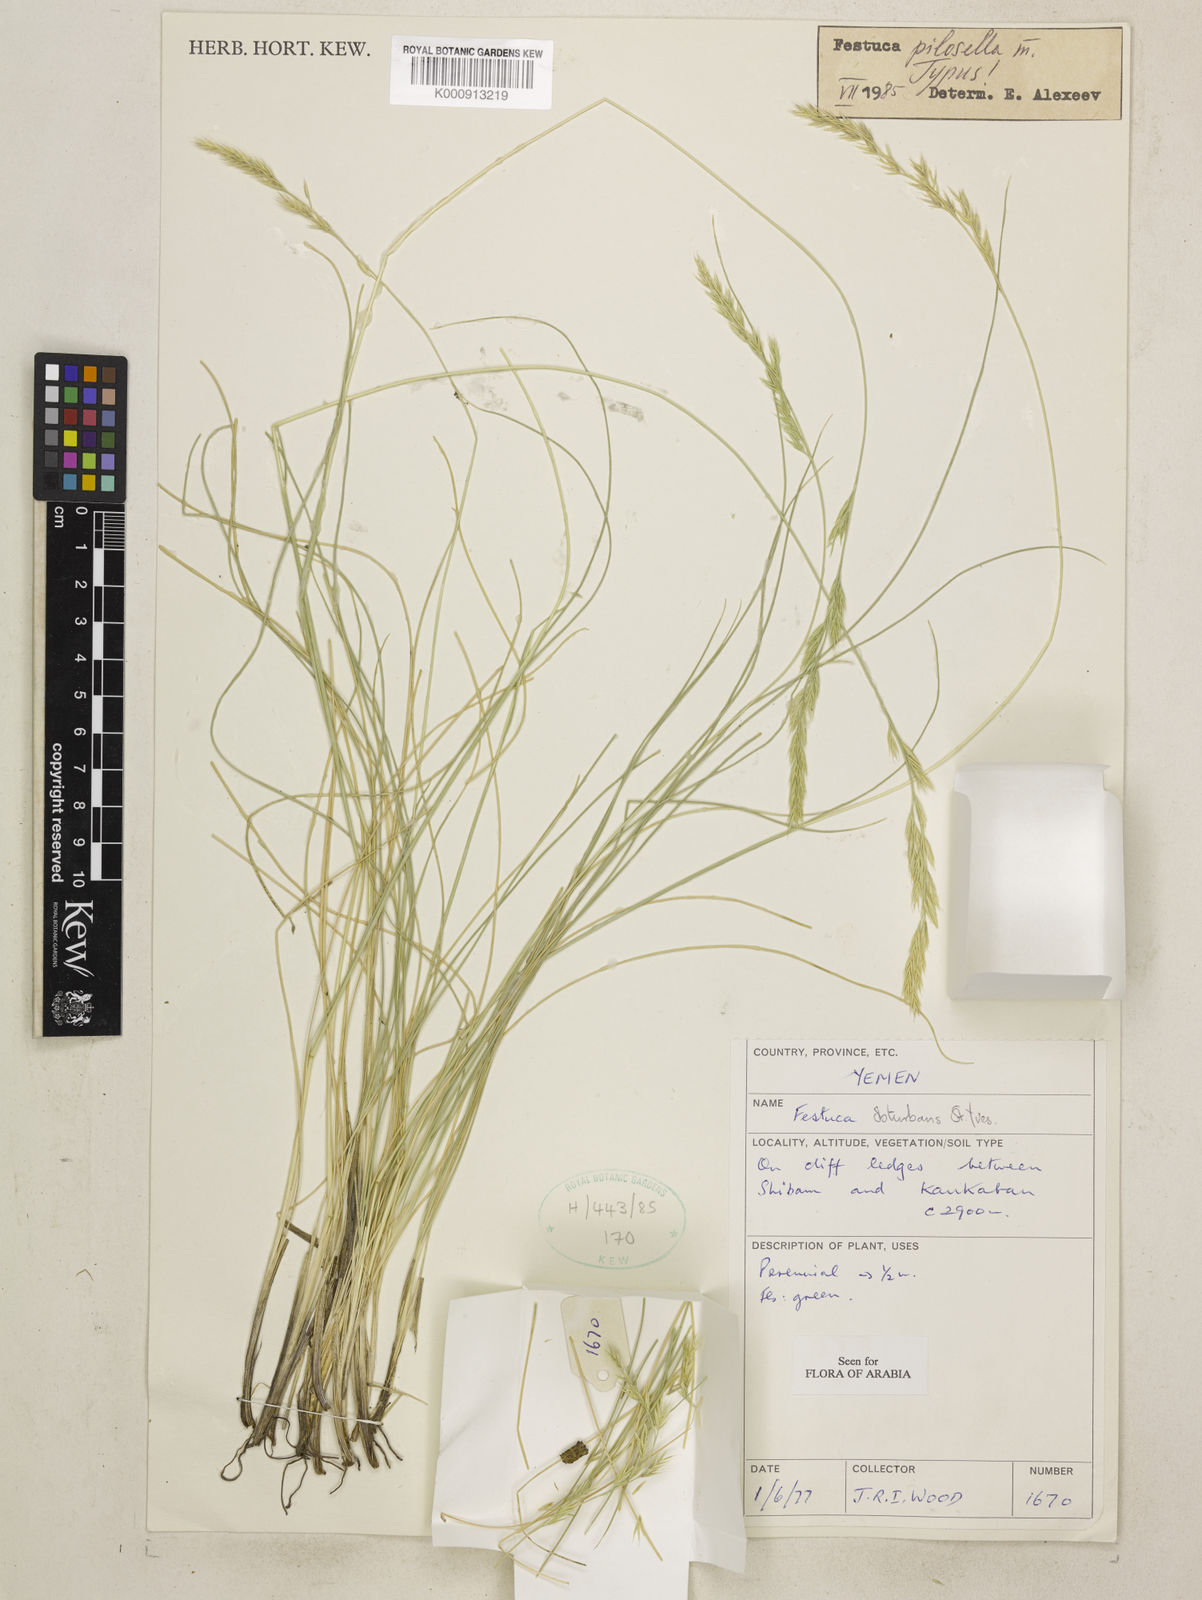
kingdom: Plantae
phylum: Tracheophyta
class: Liliopsida
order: Poales
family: Poaceae
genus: Festuca
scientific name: Festuca pilosella
